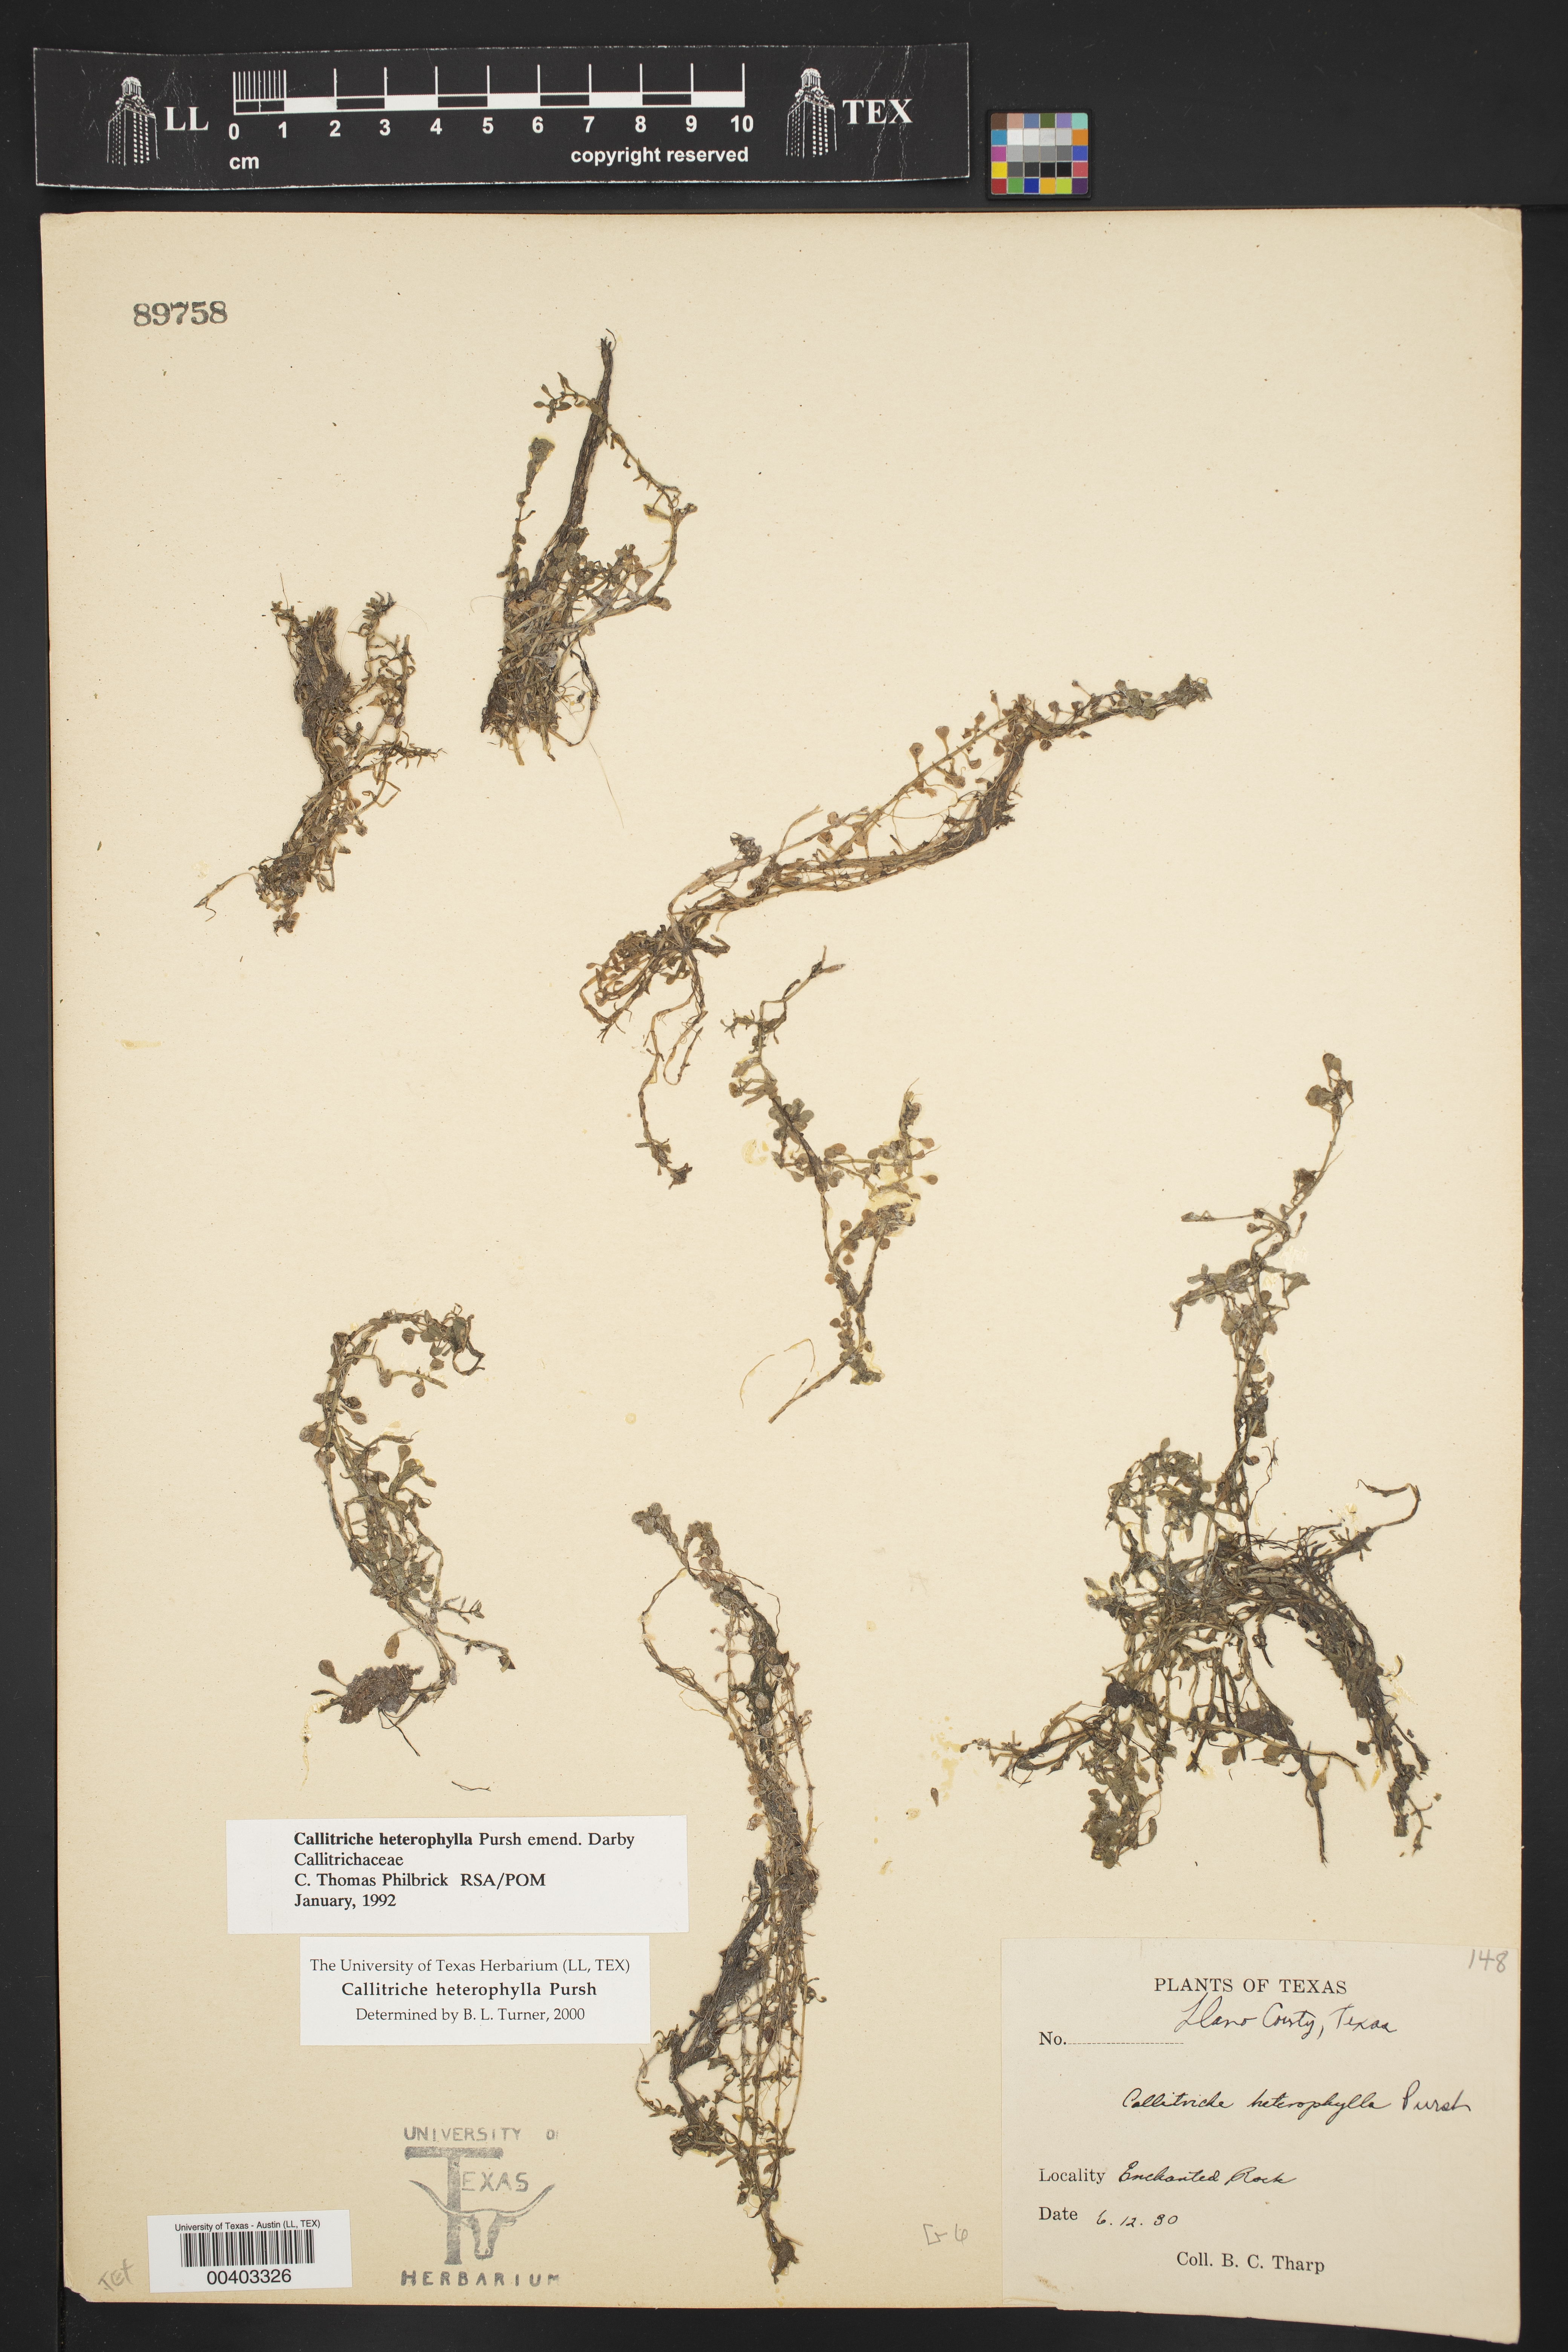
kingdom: Plantae
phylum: Tracheophyta
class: Magnoliopsida
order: Lamiales
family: Plantaginaceae
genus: Callitriche
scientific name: Callitriche heterophylla
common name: Two-headed water-starwort
